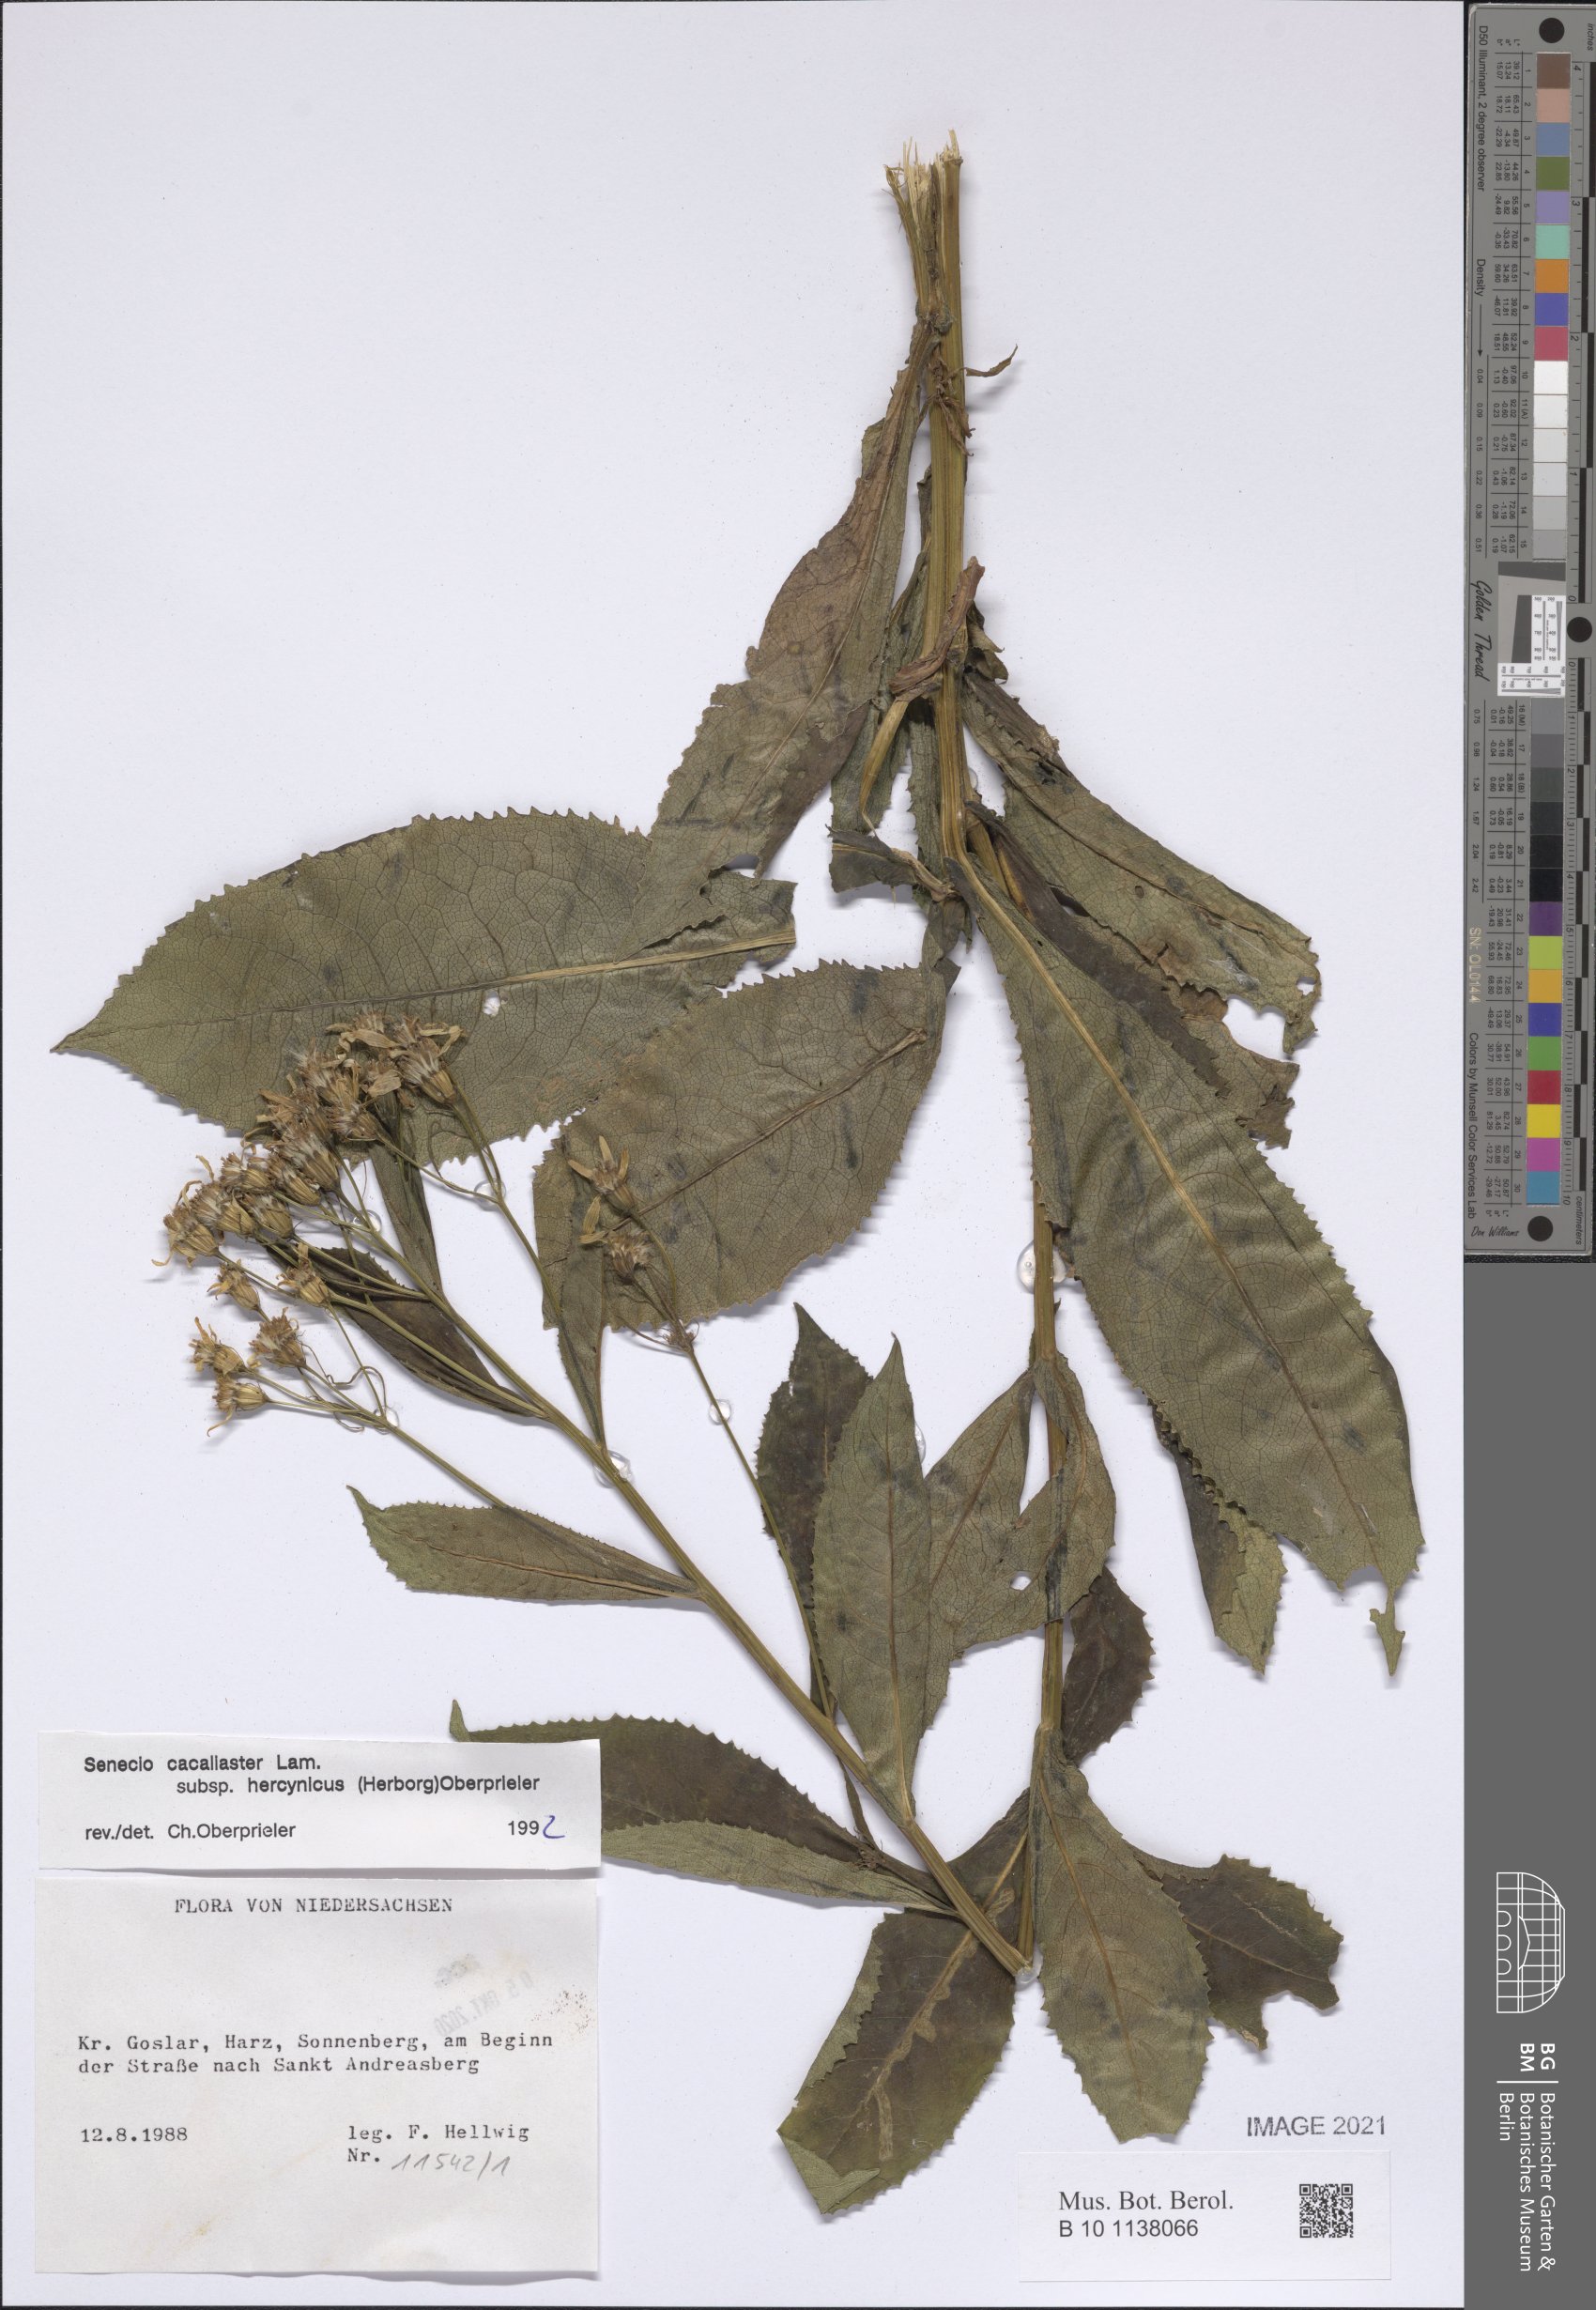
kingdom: Plantae
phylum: Tracheophyta
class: Magnoliopsida
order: Asterales
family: Asteraceae
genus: Senecio
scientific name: Senecio hercynicus
